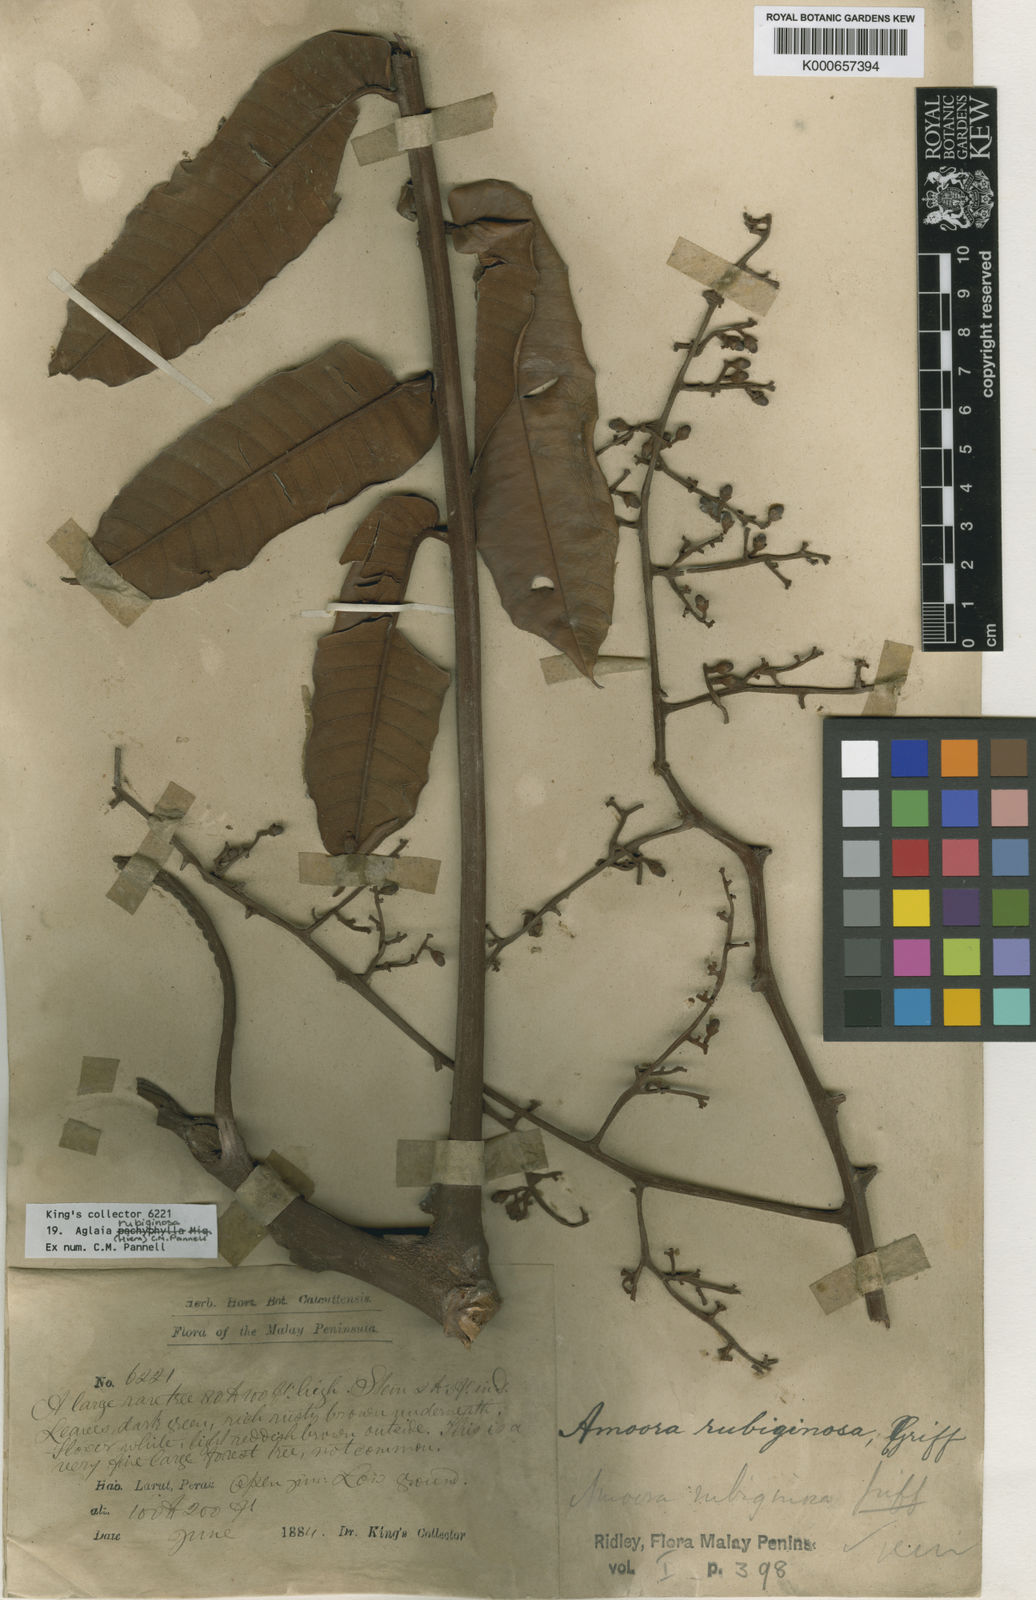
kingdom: Plantae
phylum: Tracheophyta
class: Magnoliopsida
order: Sapindales
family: Meliaceae
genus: Aglaia
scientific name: Aglaia rubiginosa
